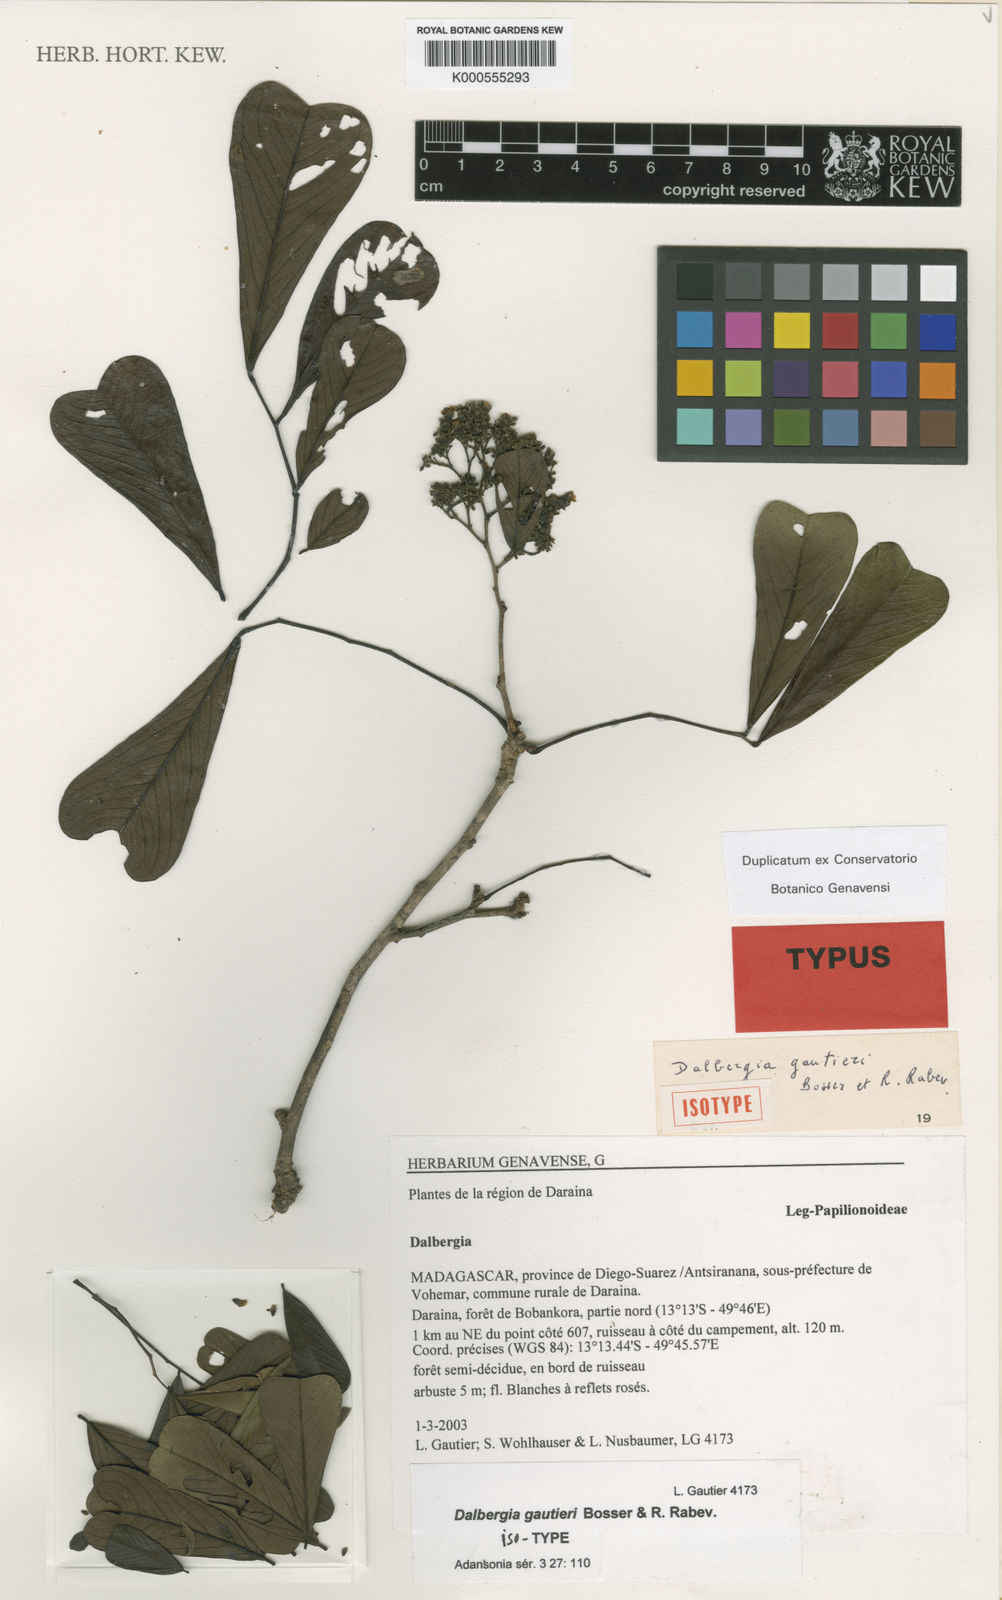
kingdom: Plantae
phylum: Tracheophyta
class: Magnoliopsida
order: Fabales
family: Fabaceae
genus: Dalbergia
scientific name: Dalbergia gautieri
